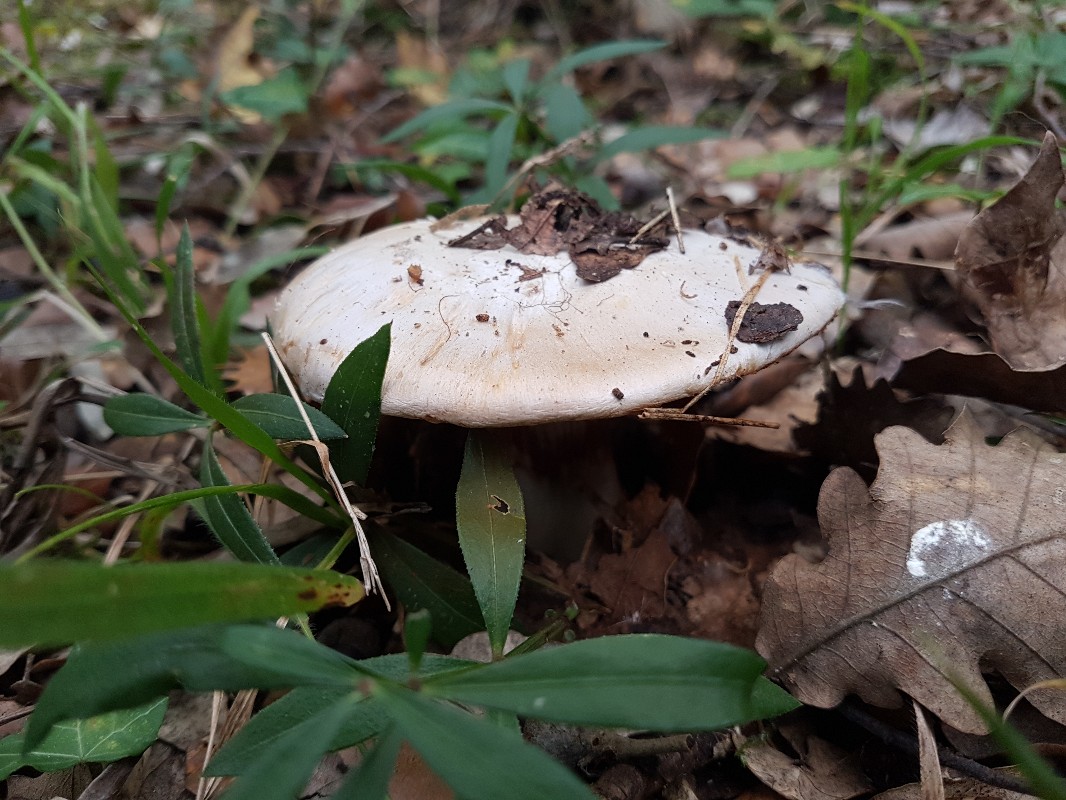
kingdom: Fungi
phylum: Basidiomycota
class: Agaricomycetes
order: Agaricales
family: Cortinariaceae
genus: Cortinarius
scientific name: Cortinarius aleuriosmus
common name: Mealy webcap
